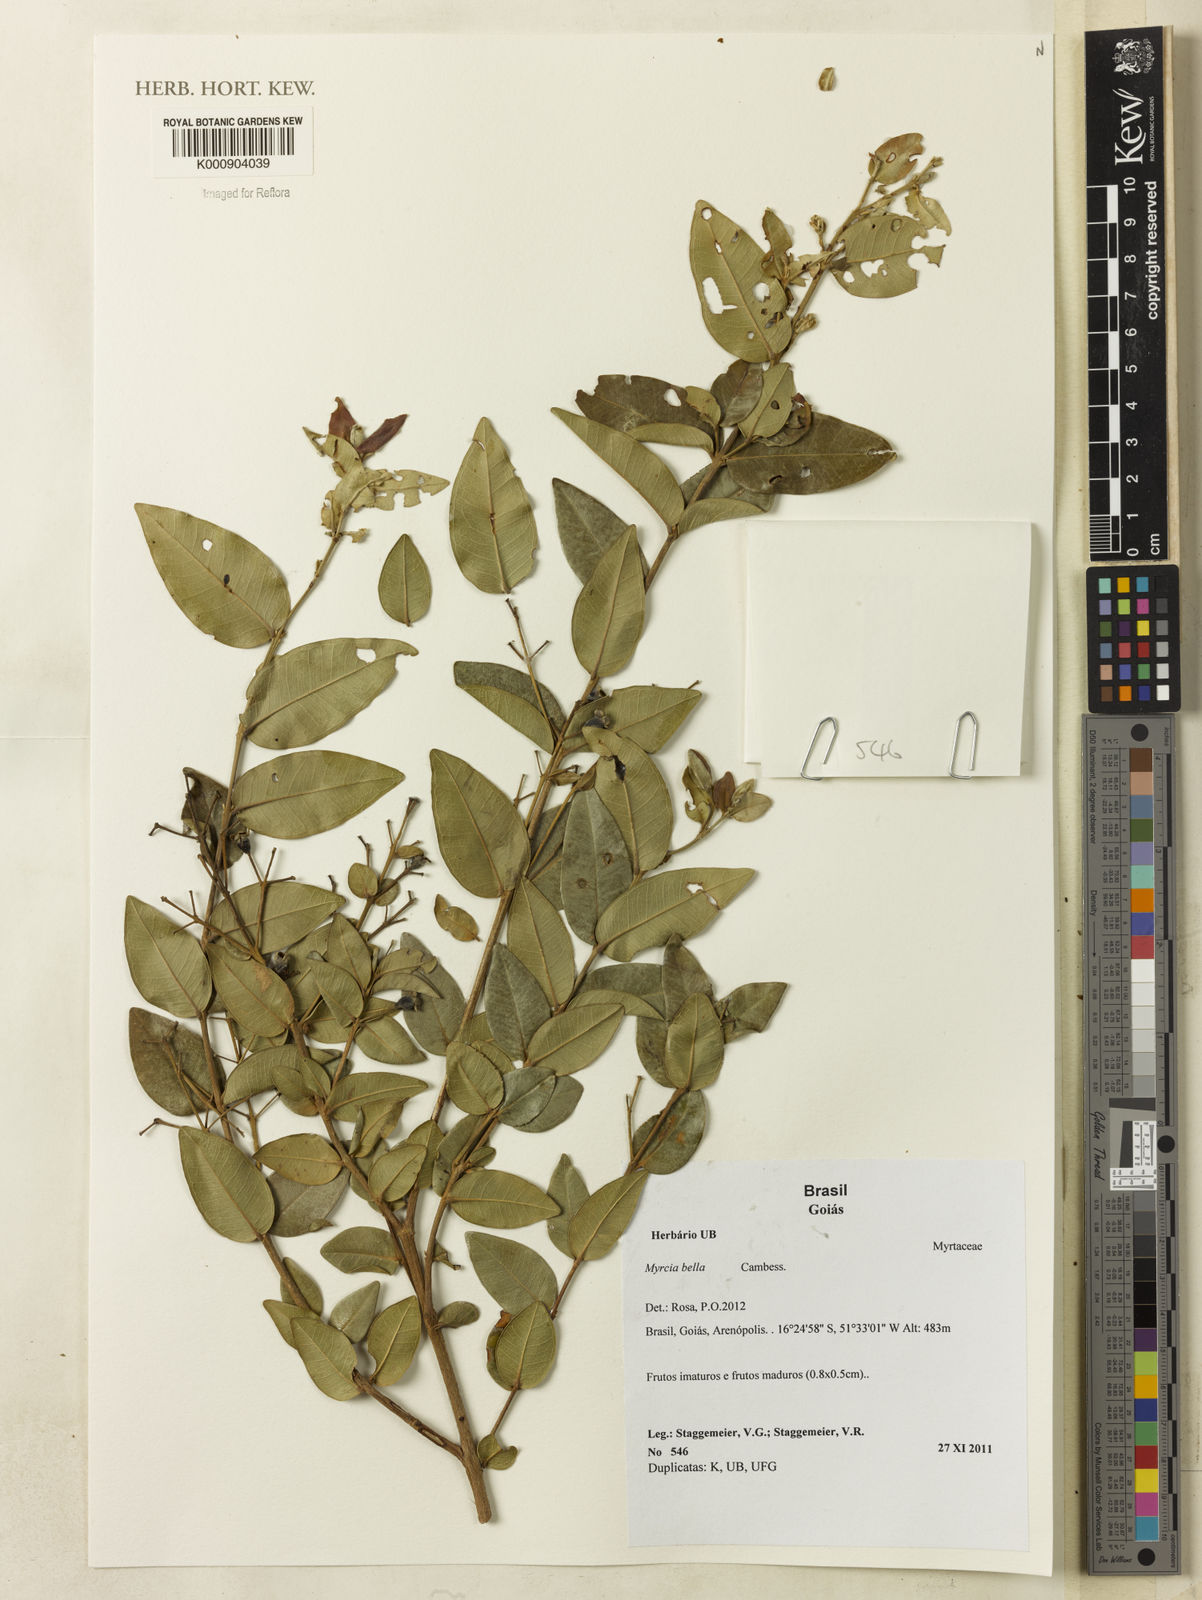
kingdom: Plantae
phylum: Tracheophyta
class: Magnoliopsida
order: Myrtales
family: Myrtaceae
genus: Myrcia
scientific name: Myrcia bella
